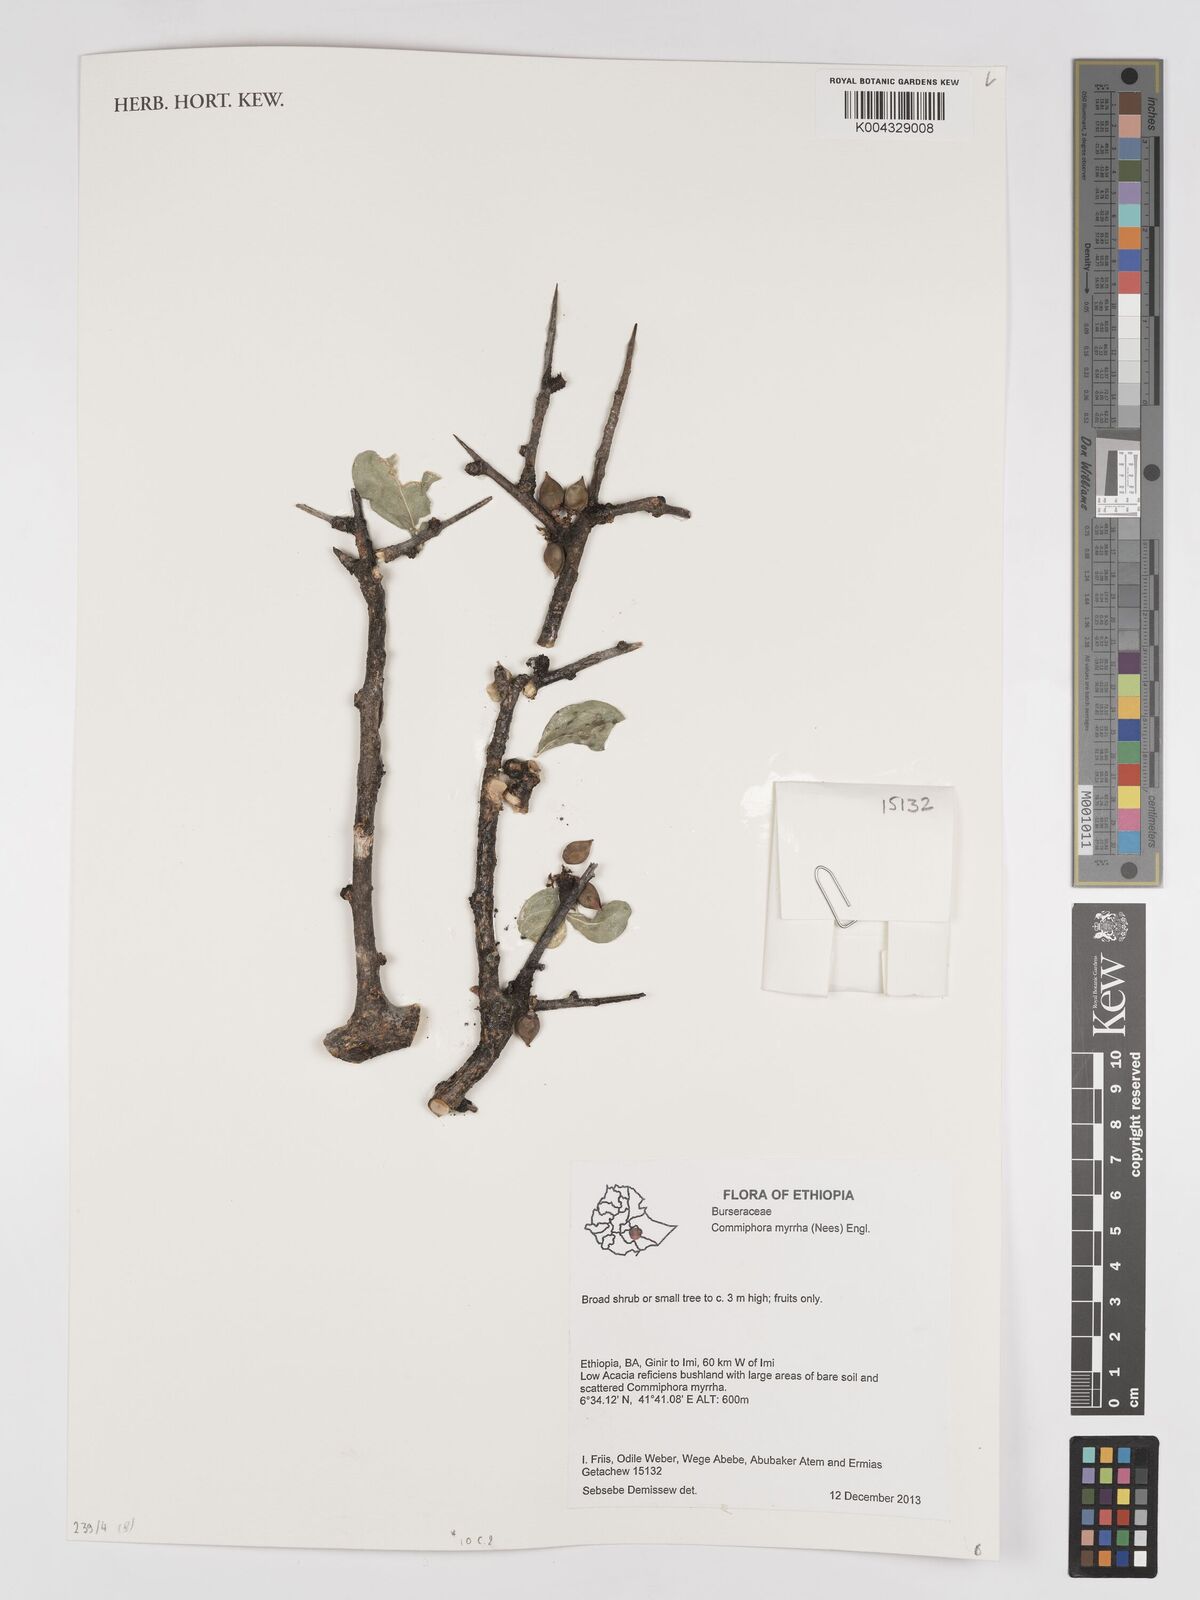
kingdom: Plantae
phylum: Tracheophyta
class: Magnoliopsida
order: Sapindales
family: Burseraceae
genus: Commiphora
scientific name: Commiphora myrrha
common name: African myrrh
